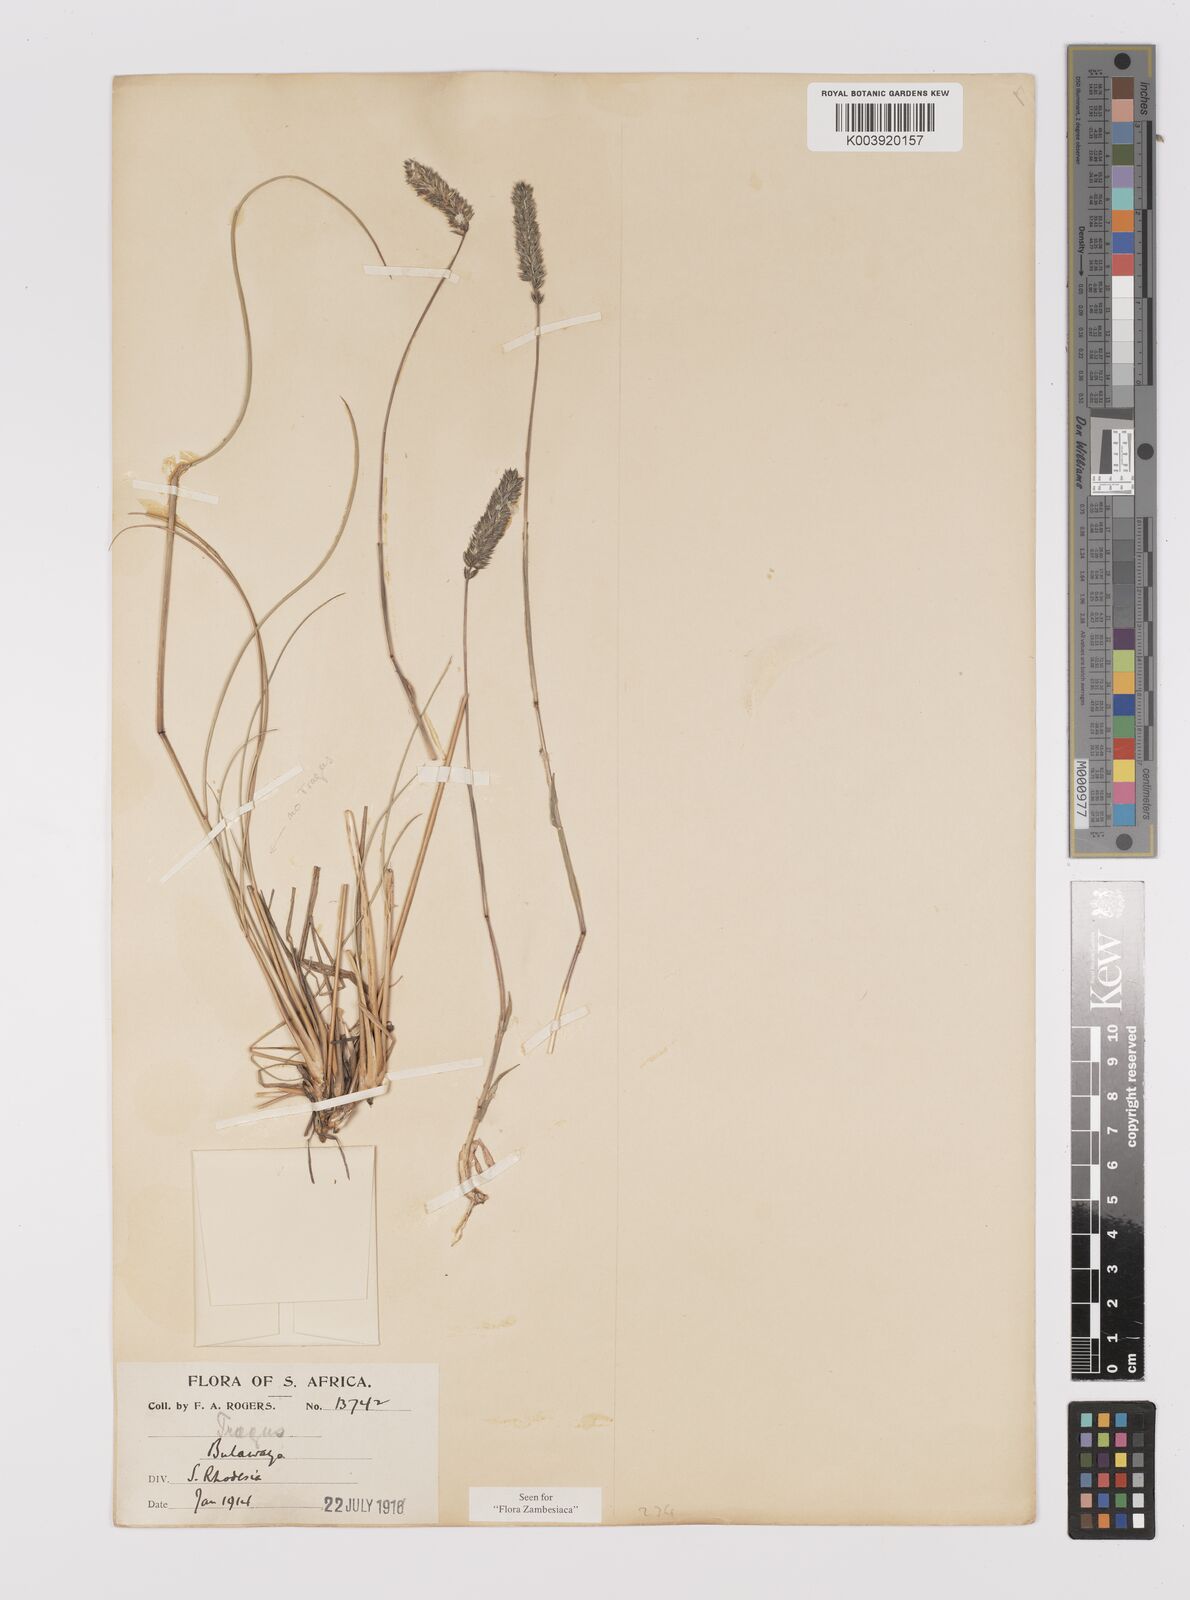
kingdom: Plantae
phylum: Tracheophyta
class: Liliopsida
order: Poales
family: Poaceae
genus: Tragus
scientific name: Tragus koelerioides
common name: Creeping carrot-seed grass
